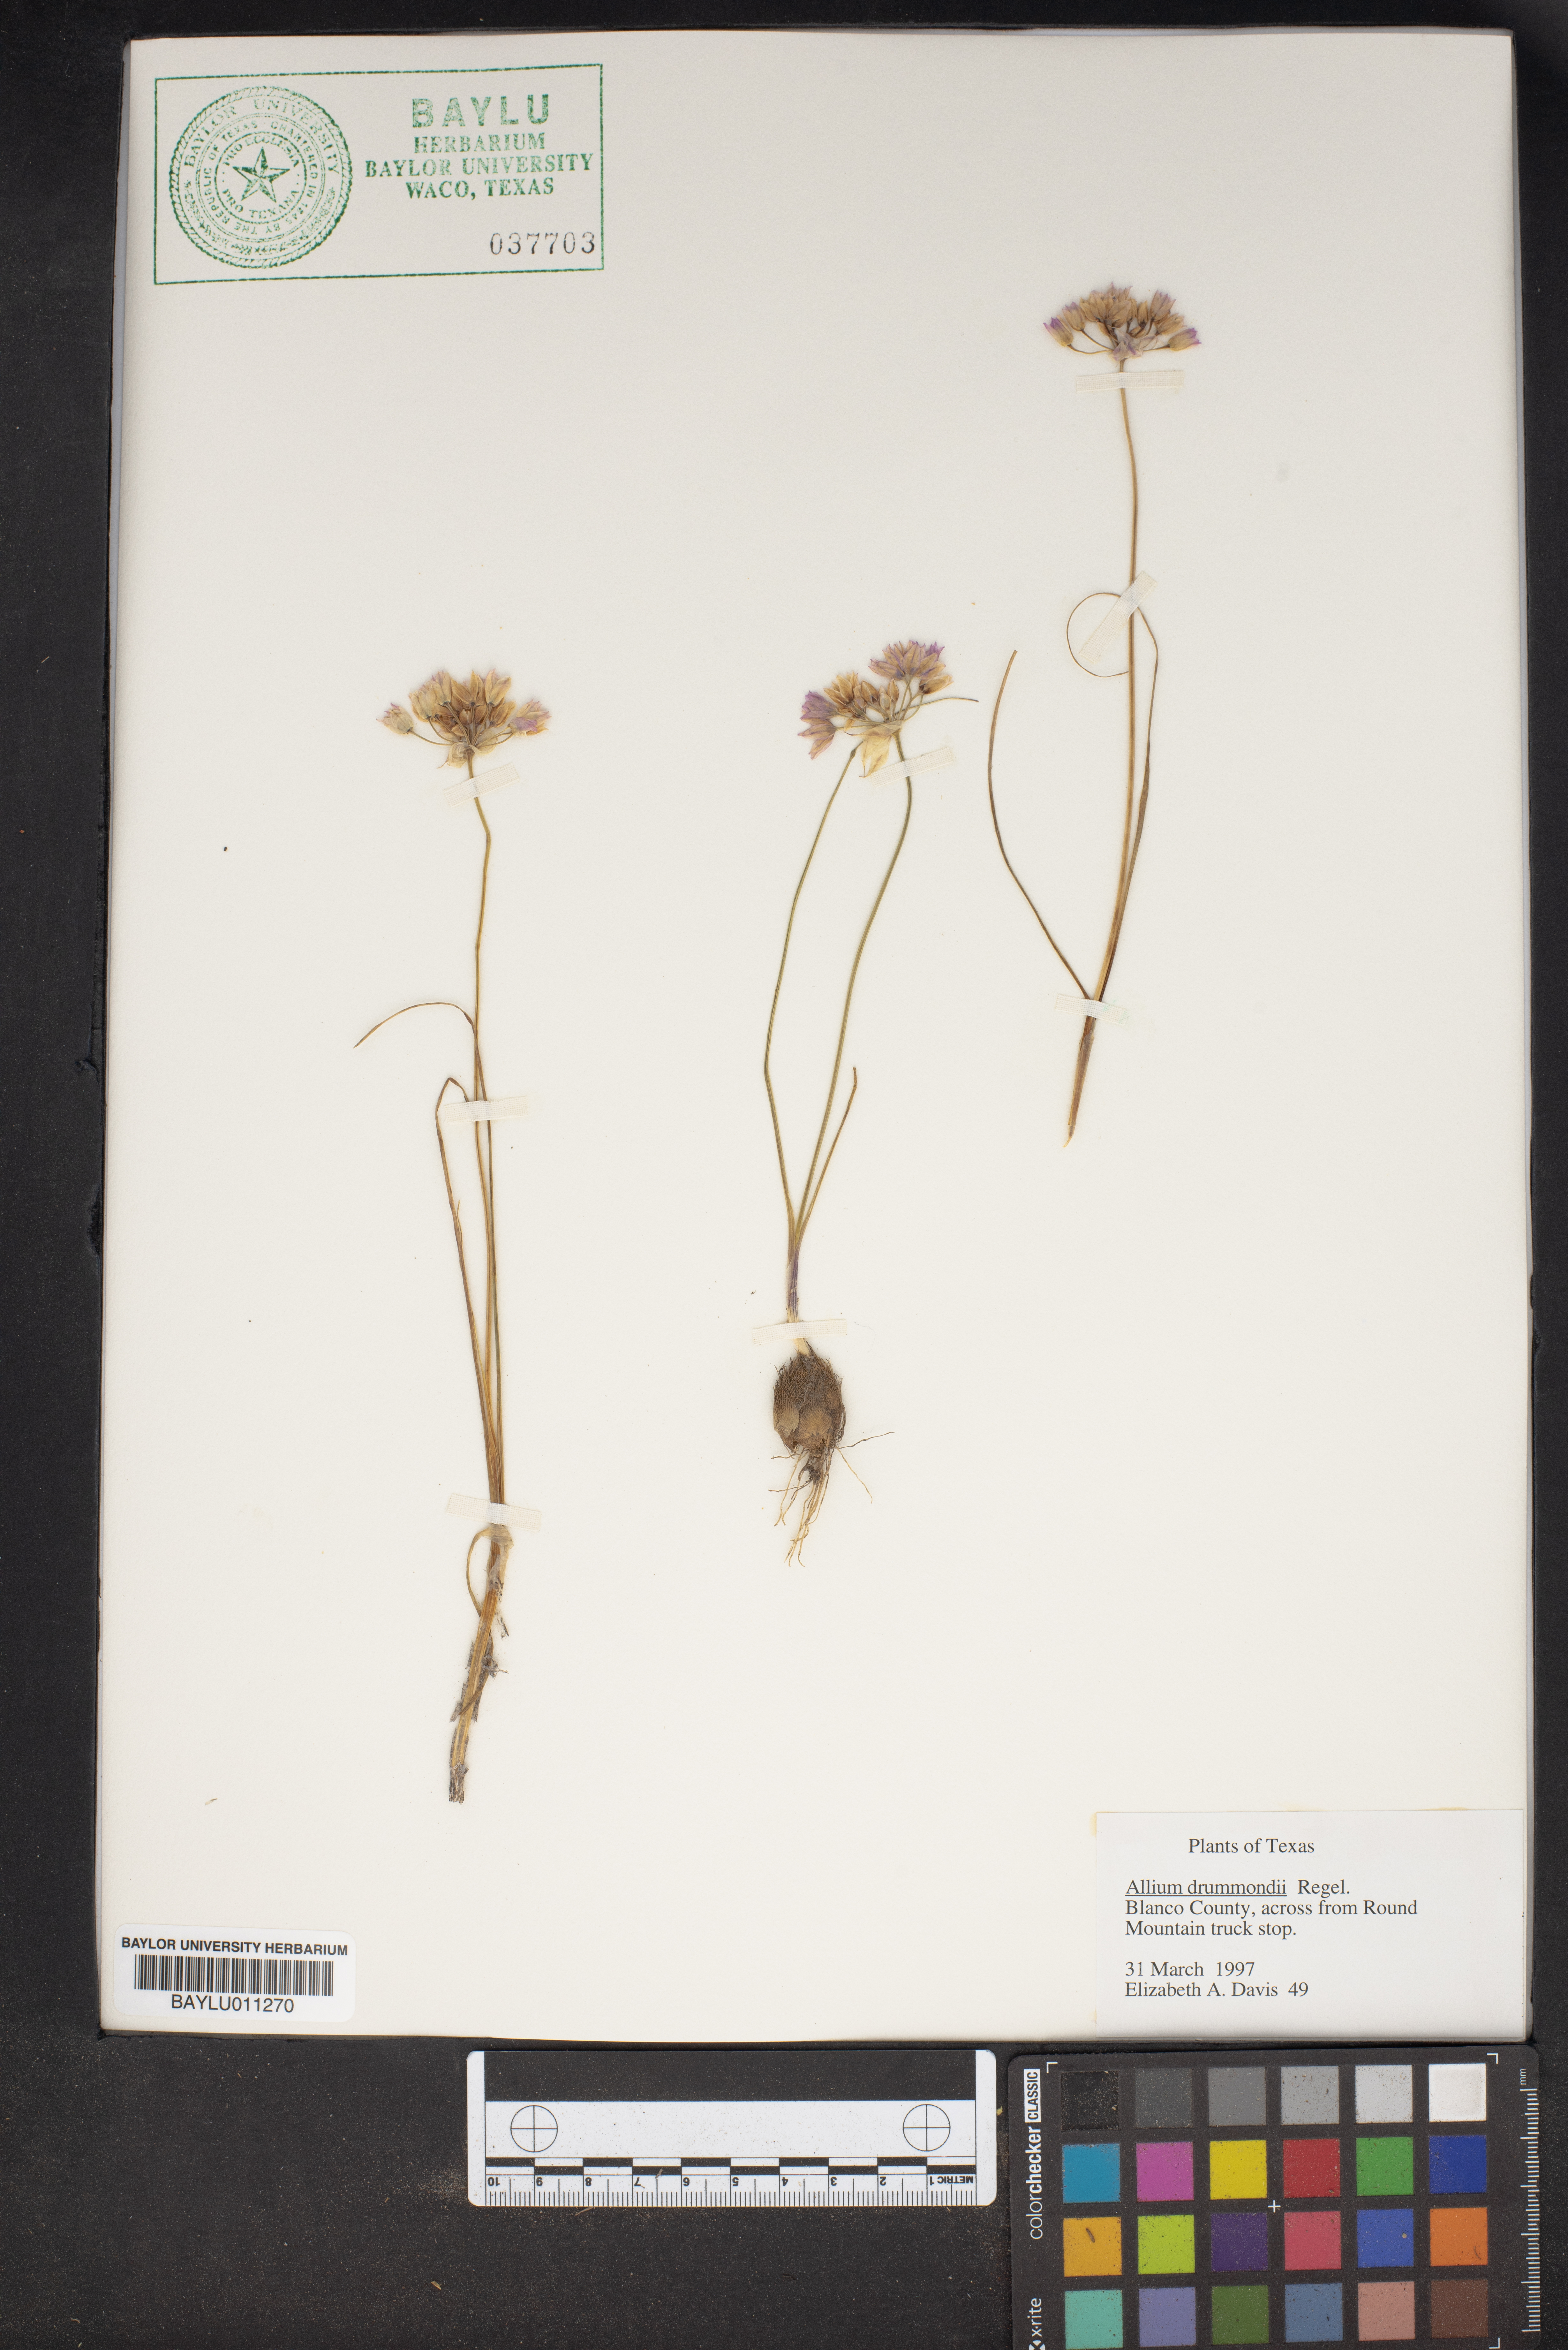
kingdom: Plantae
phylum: Tracheophyta
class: Liliopsida
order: Asparagales
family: Amaryllidaceae
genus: Allium
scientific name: Allium drummondii
